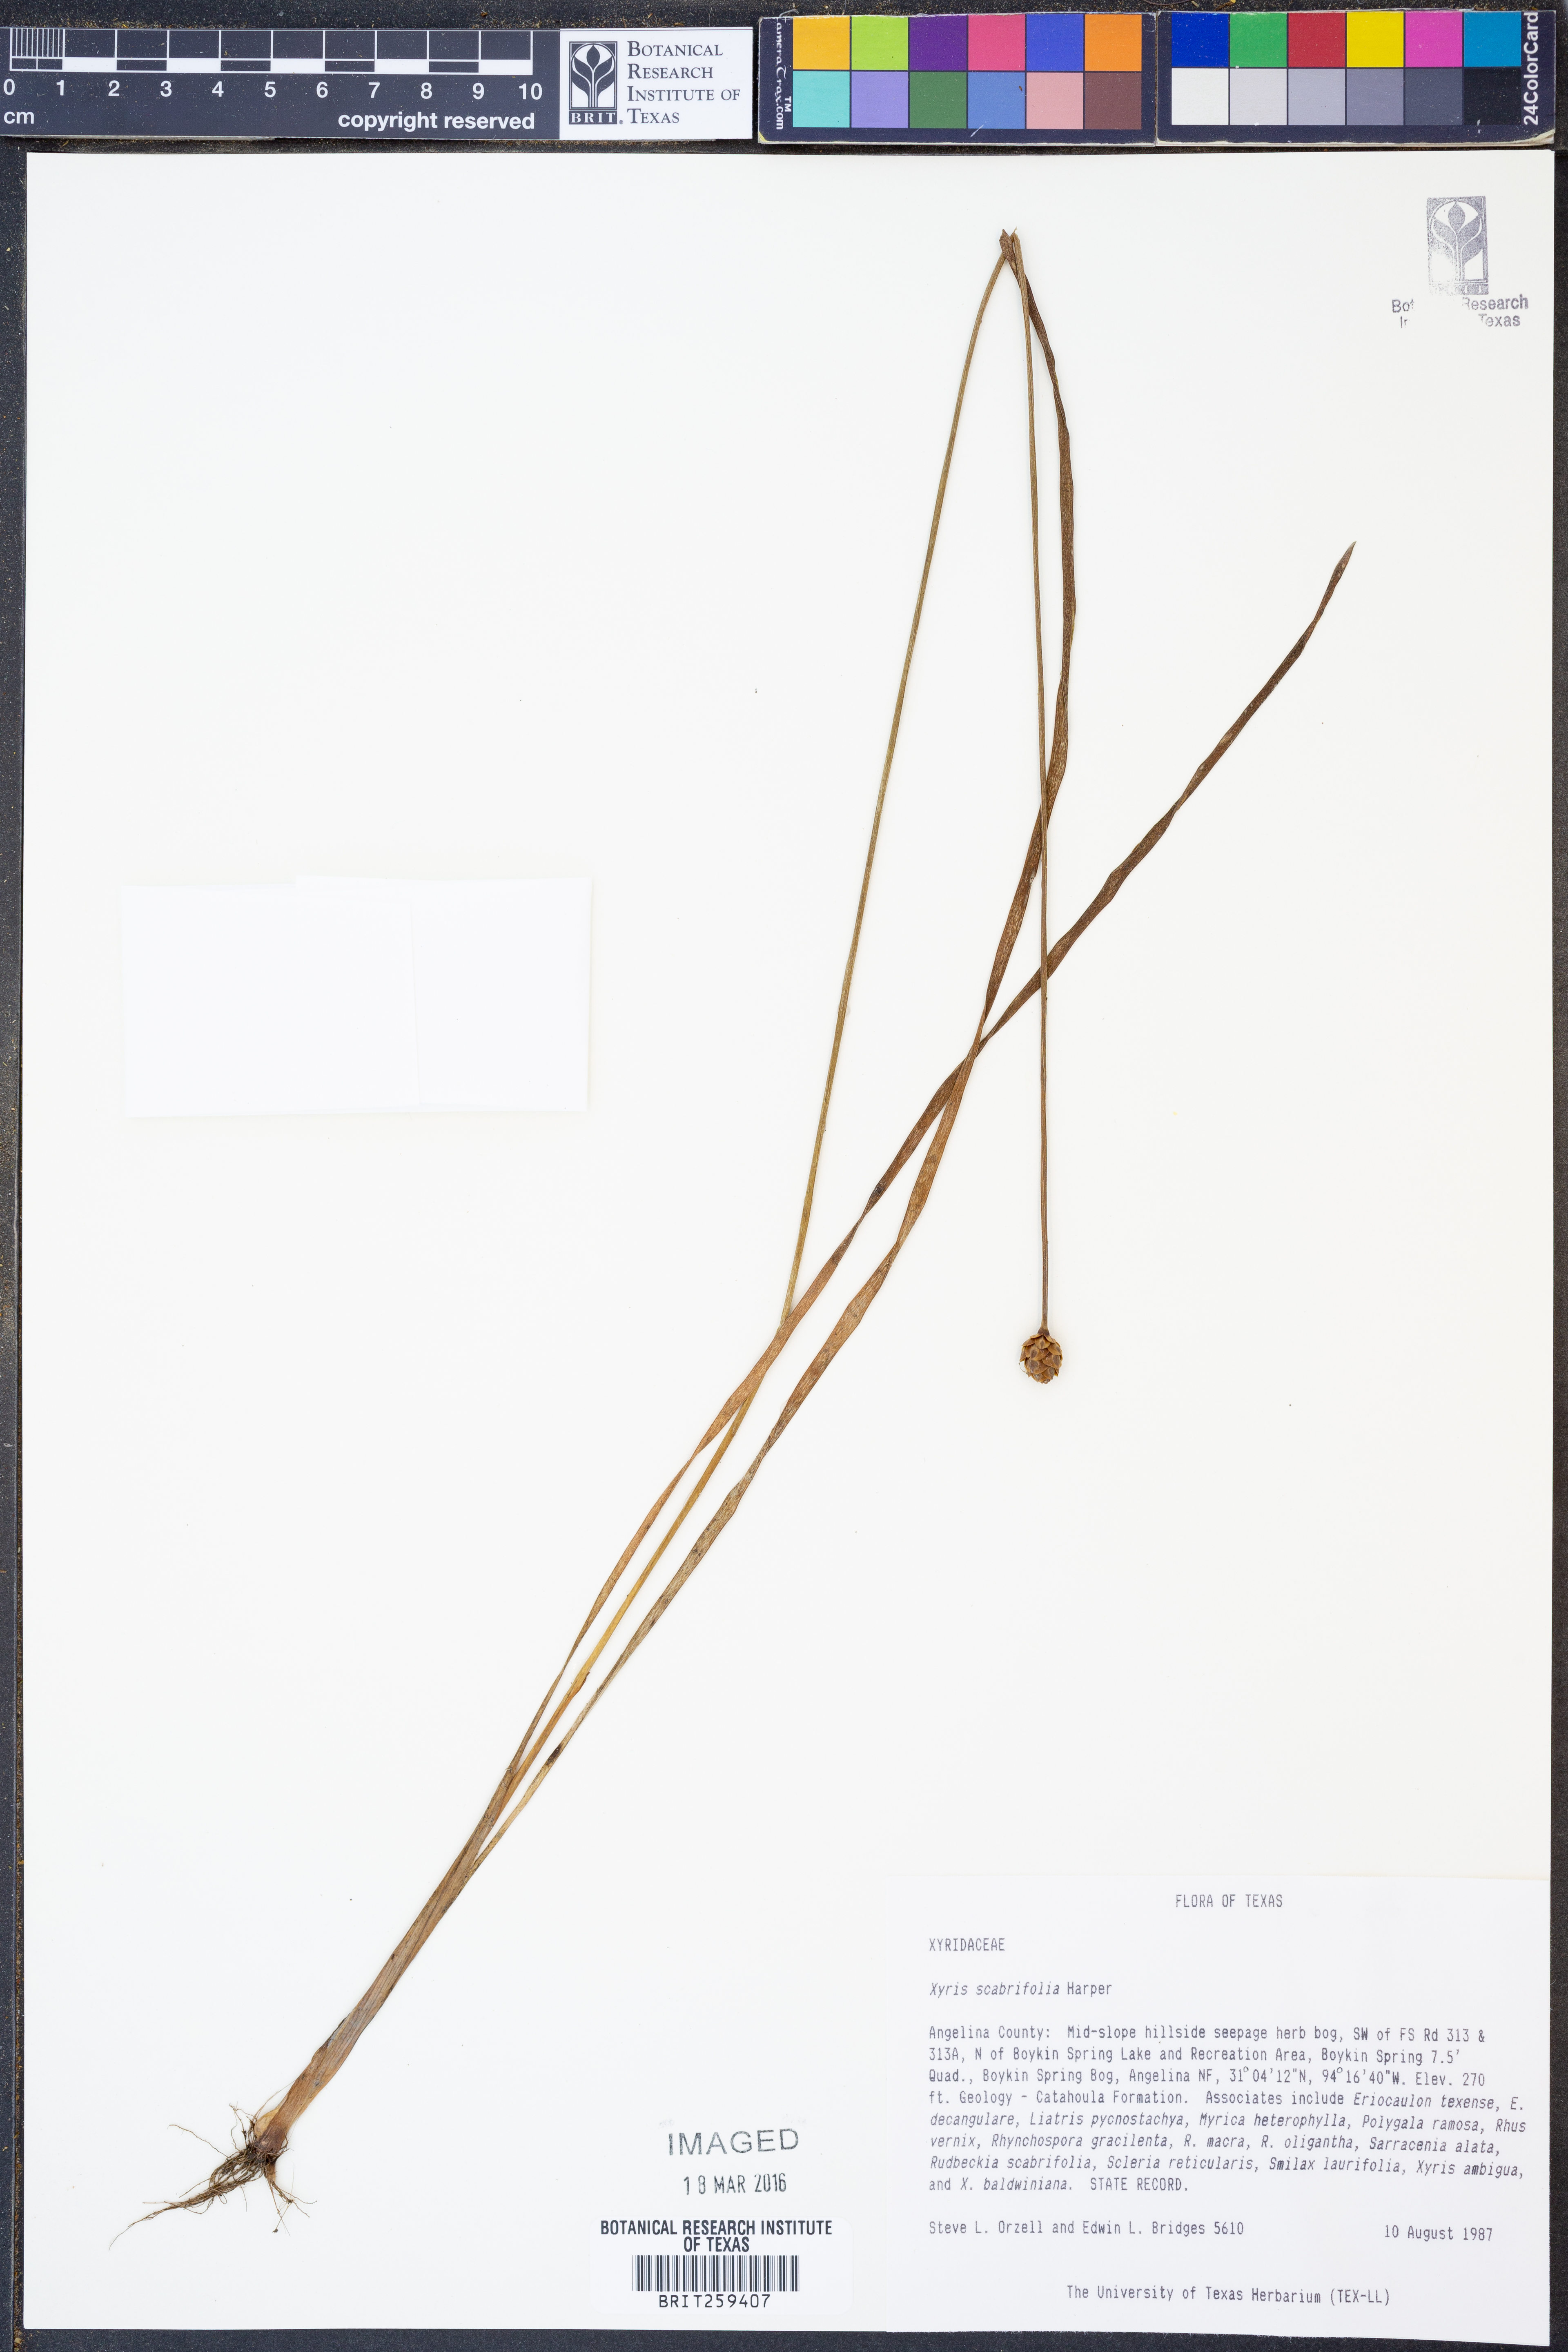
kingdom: Plantae
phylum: Tracheophyta
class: Liliopsida
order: Poales
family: Xyridaceae
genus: Xyris
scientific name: Xyris scabrifolia
